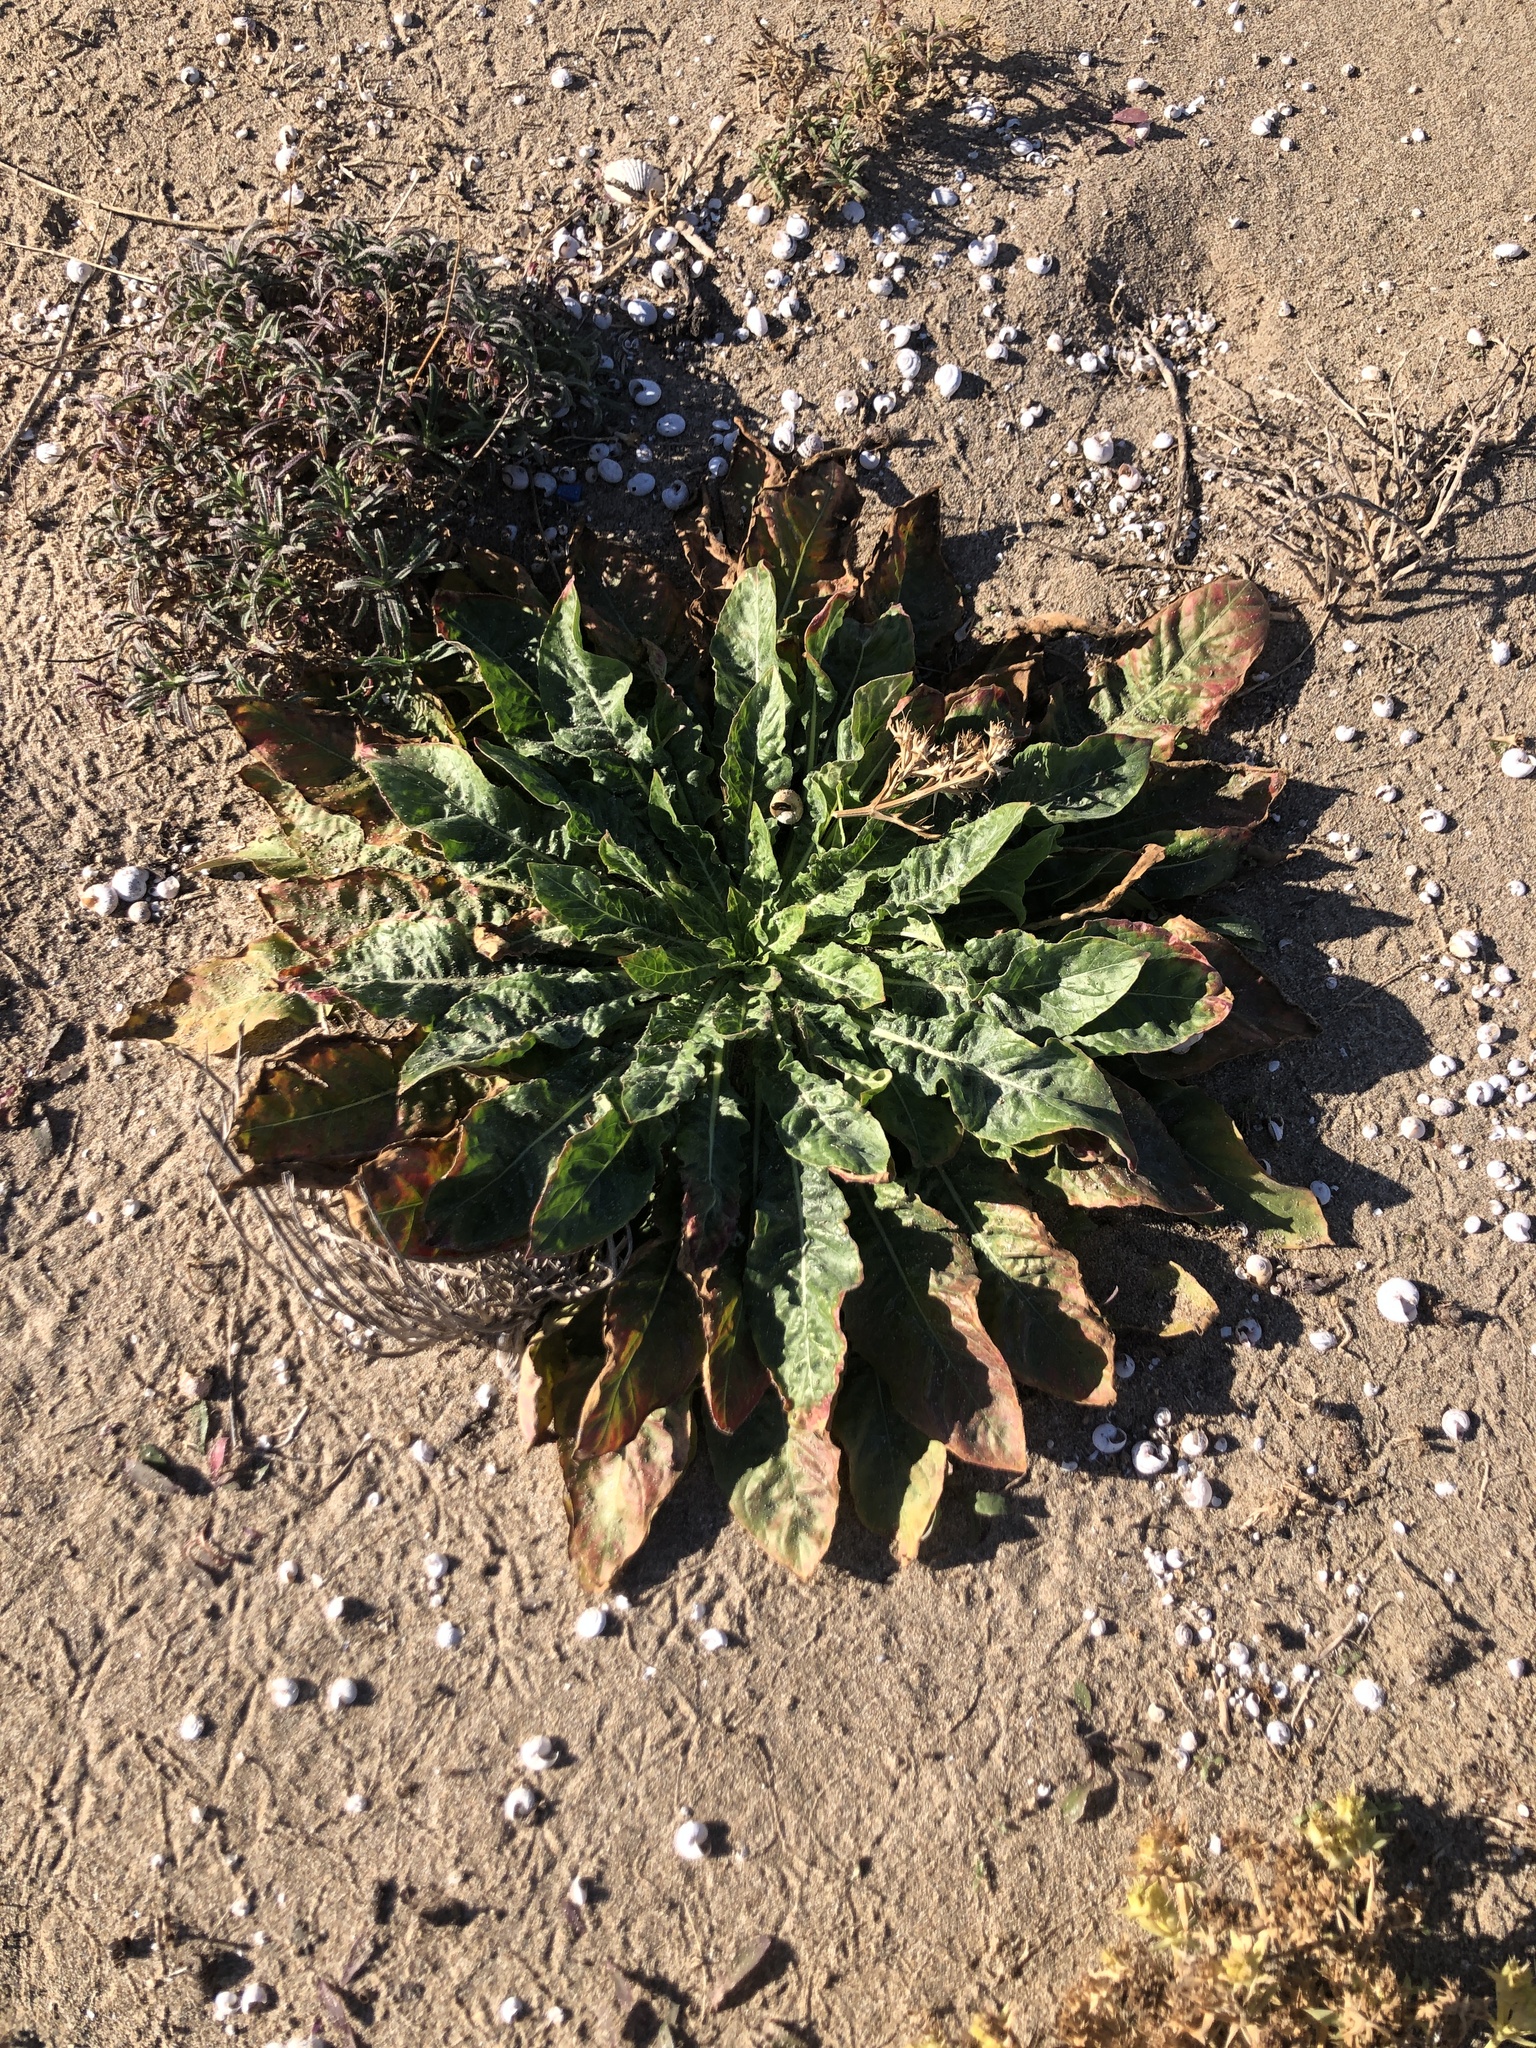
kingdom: Plantae
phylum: Tracheophyta
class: Magnoliopsida
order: Myrtales
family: Onagraceae
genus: Oenothera
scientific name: Oenothera glazioviana
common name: Large-flowered evening-primrose
